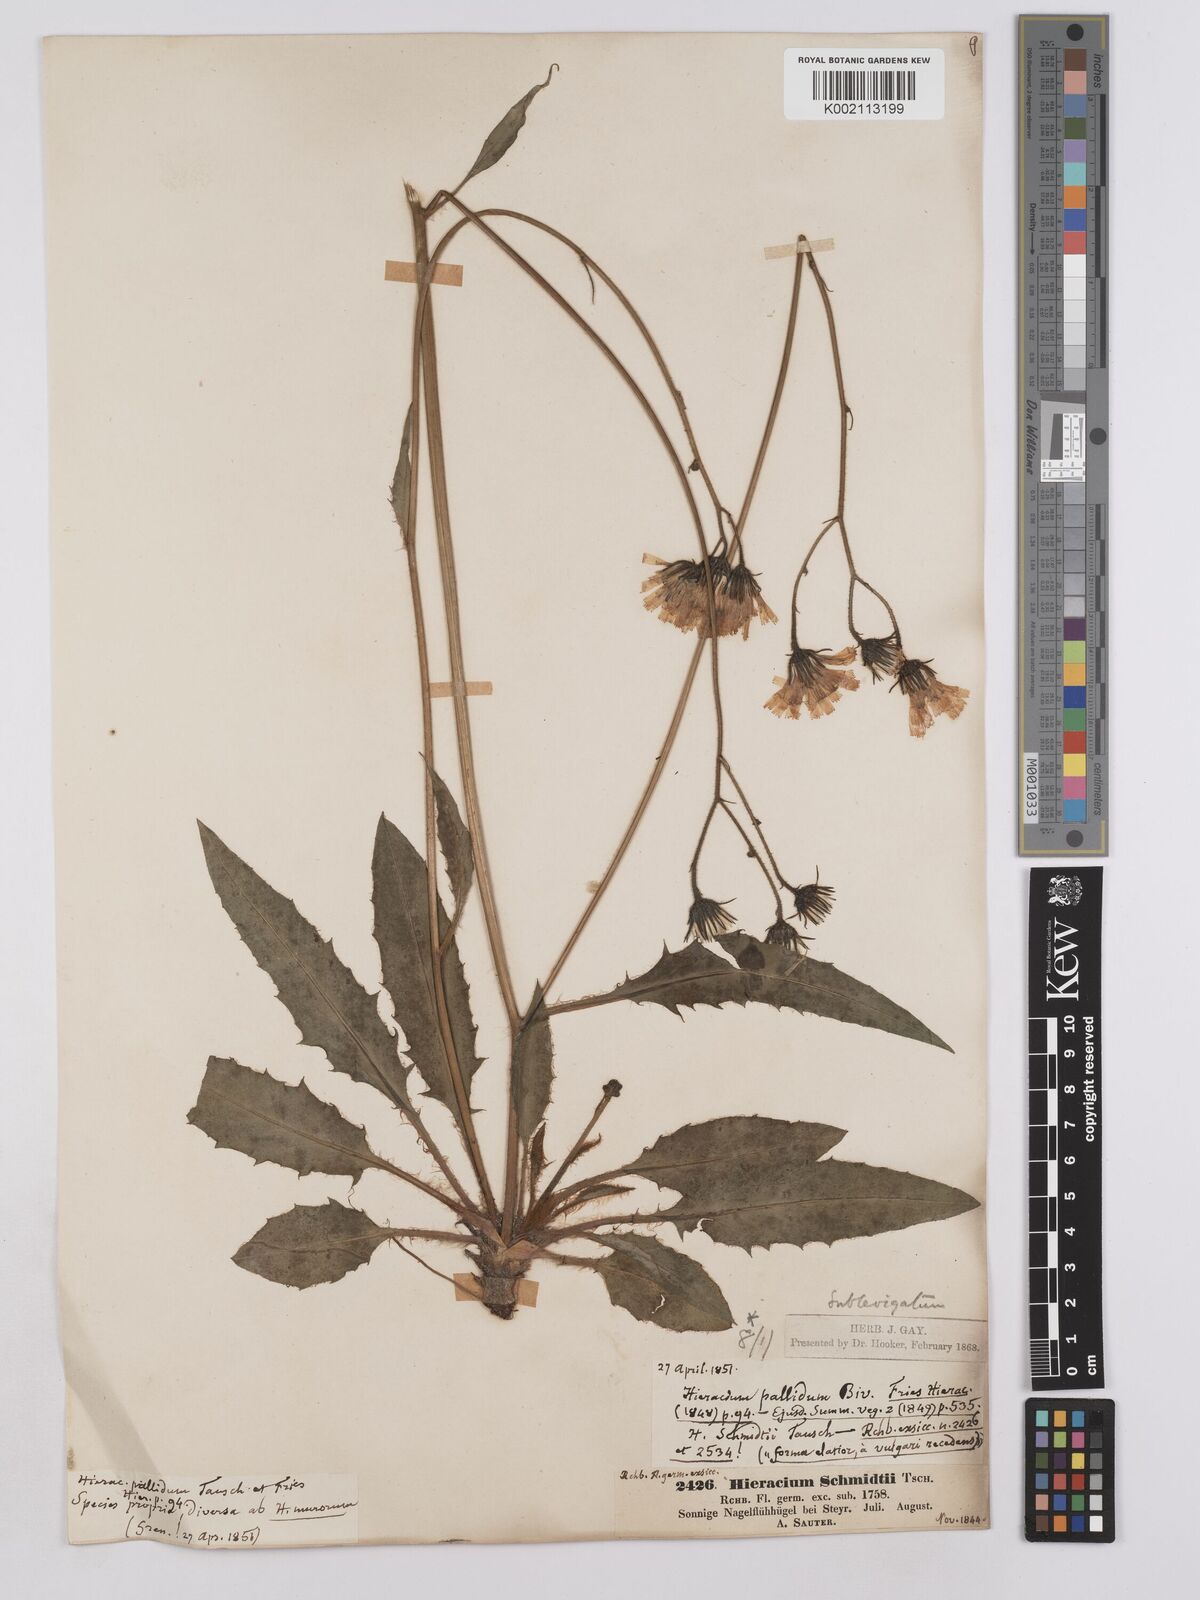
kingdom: Plantae
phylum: Tracheophyta
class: Magnoliopsida
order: Asterales
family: Asteraceae
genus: Crepis
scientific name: Crepis blattarioides
